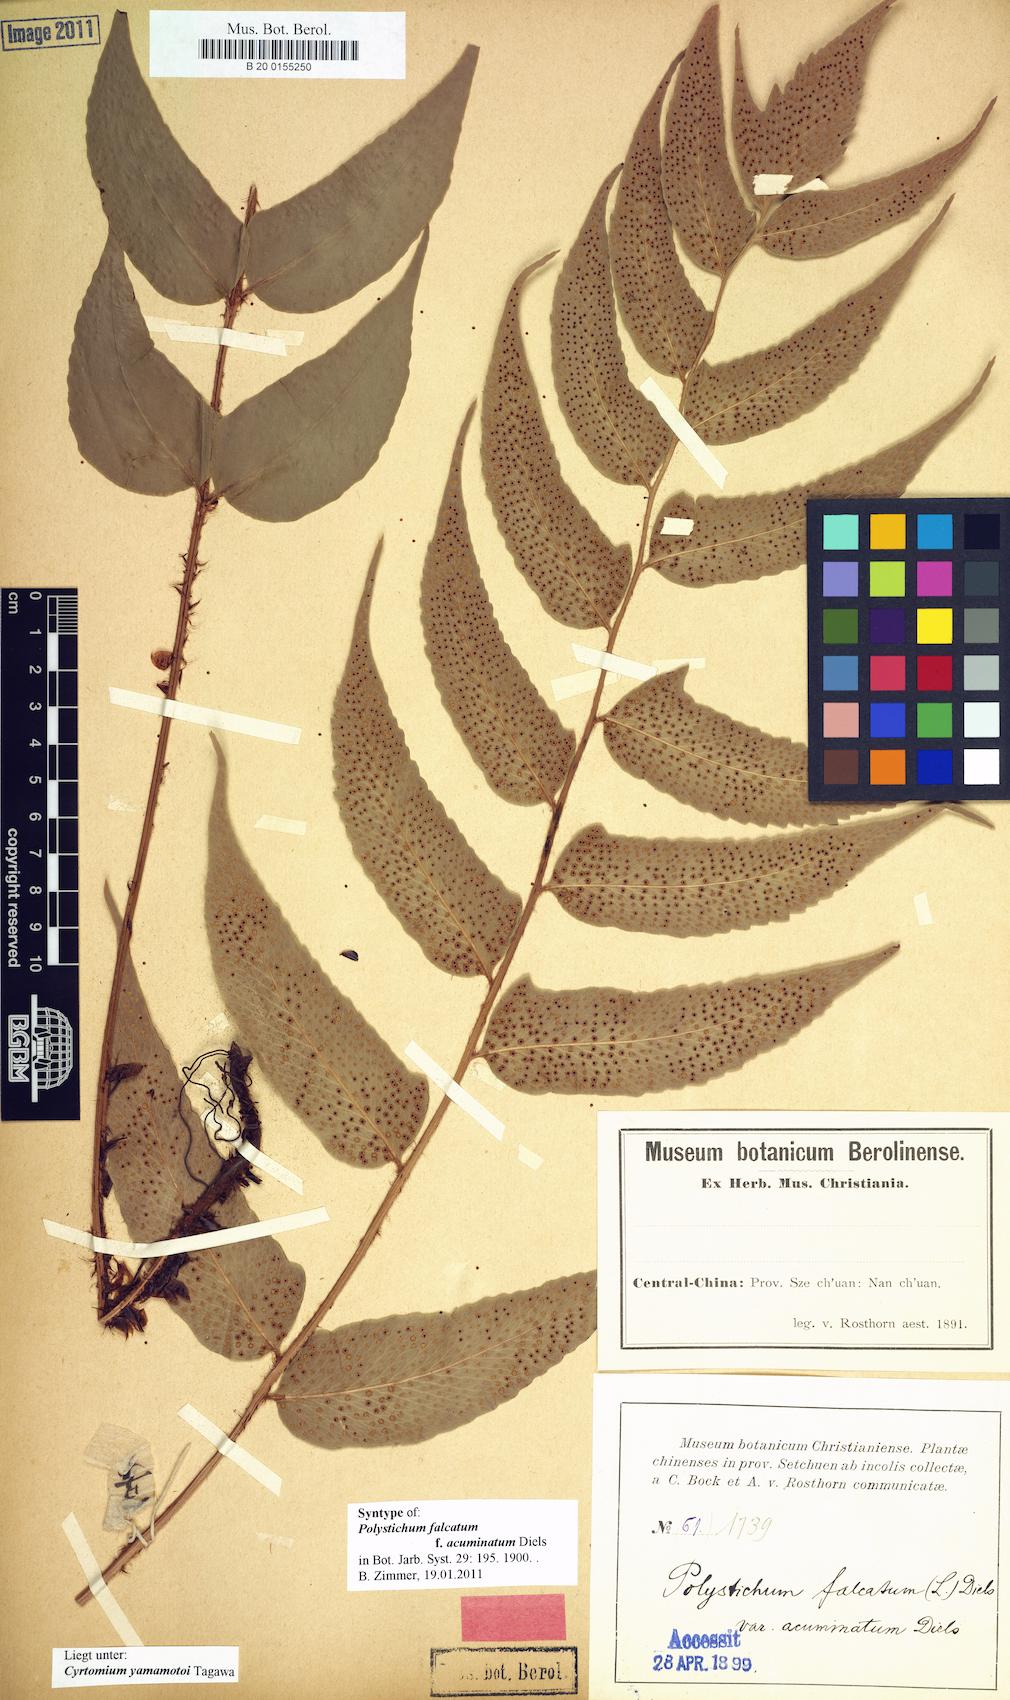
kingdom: Plantae
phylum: Tracheophyta
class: Polypodiopsida
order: Polypodiales
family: Dryopteridaceae
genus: Cyrtomium
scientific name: Cyrtomium yamamotoi
